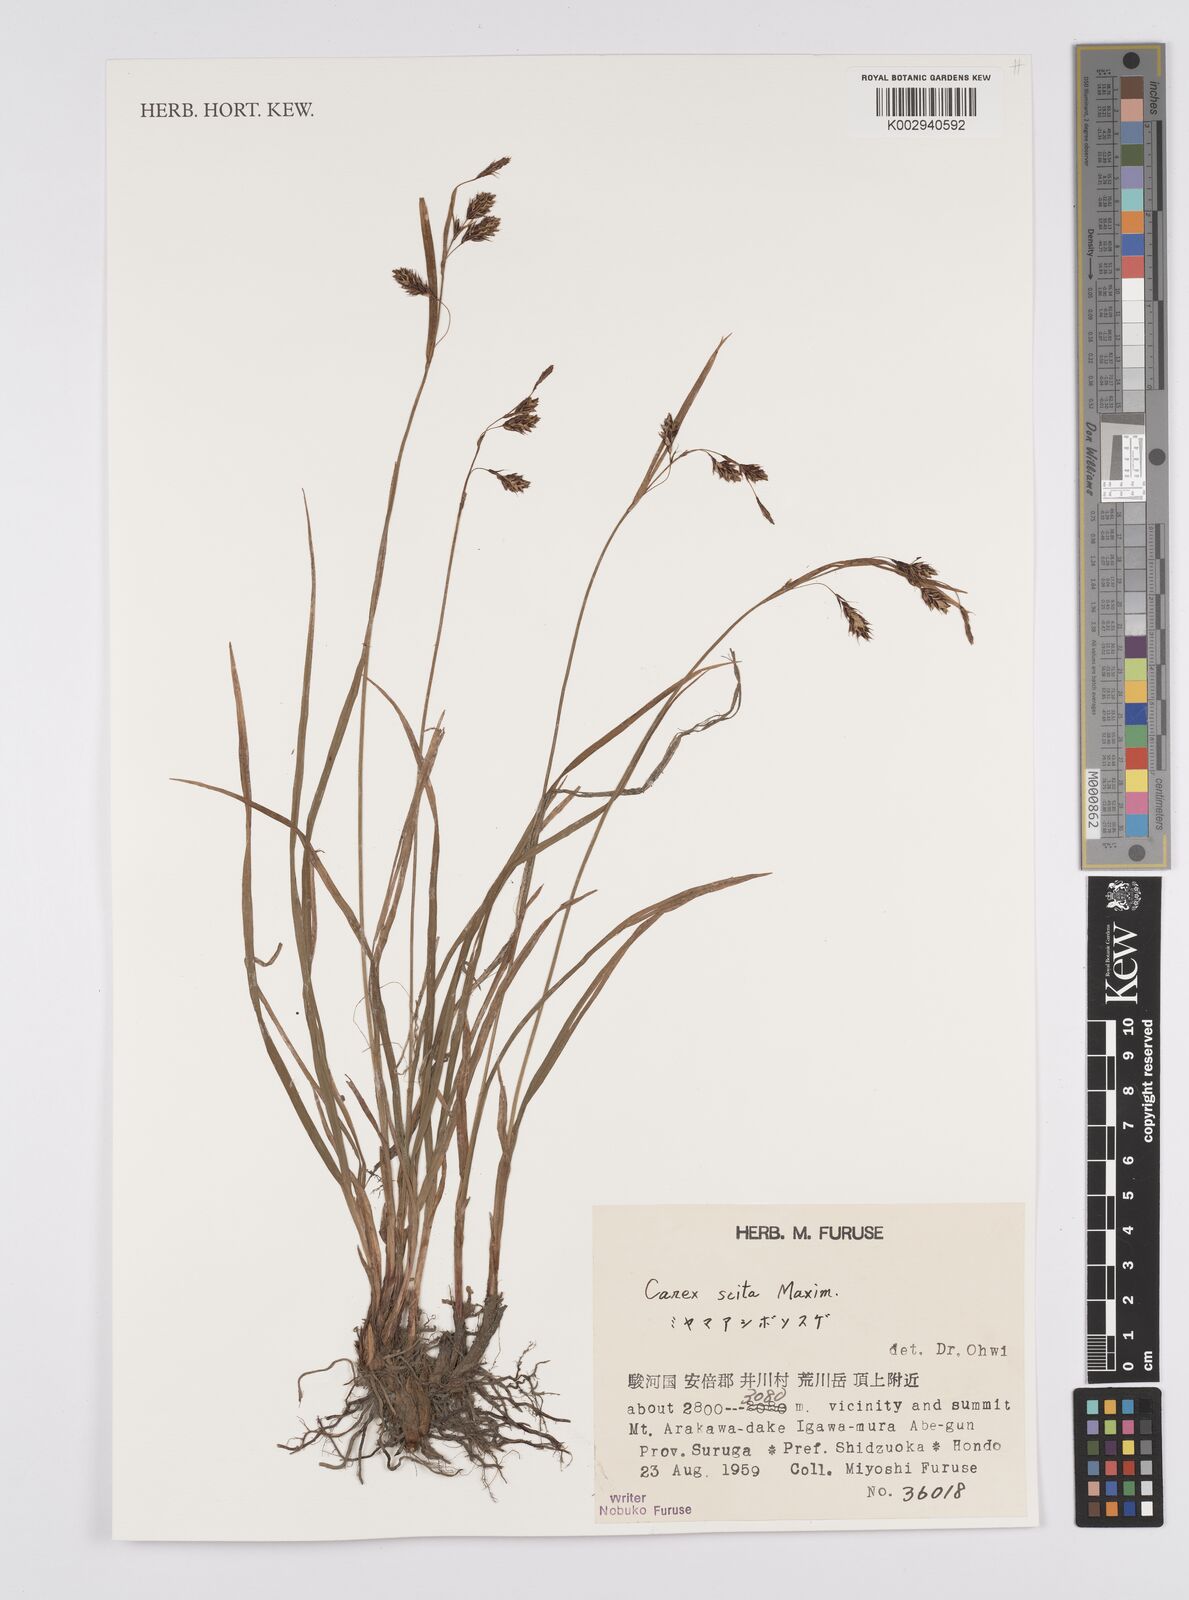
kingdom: Plantae
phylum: Tracheophyta
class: Liliopsida
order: Poales
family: Cyperaceae
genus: Carex
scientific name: Carex scita
